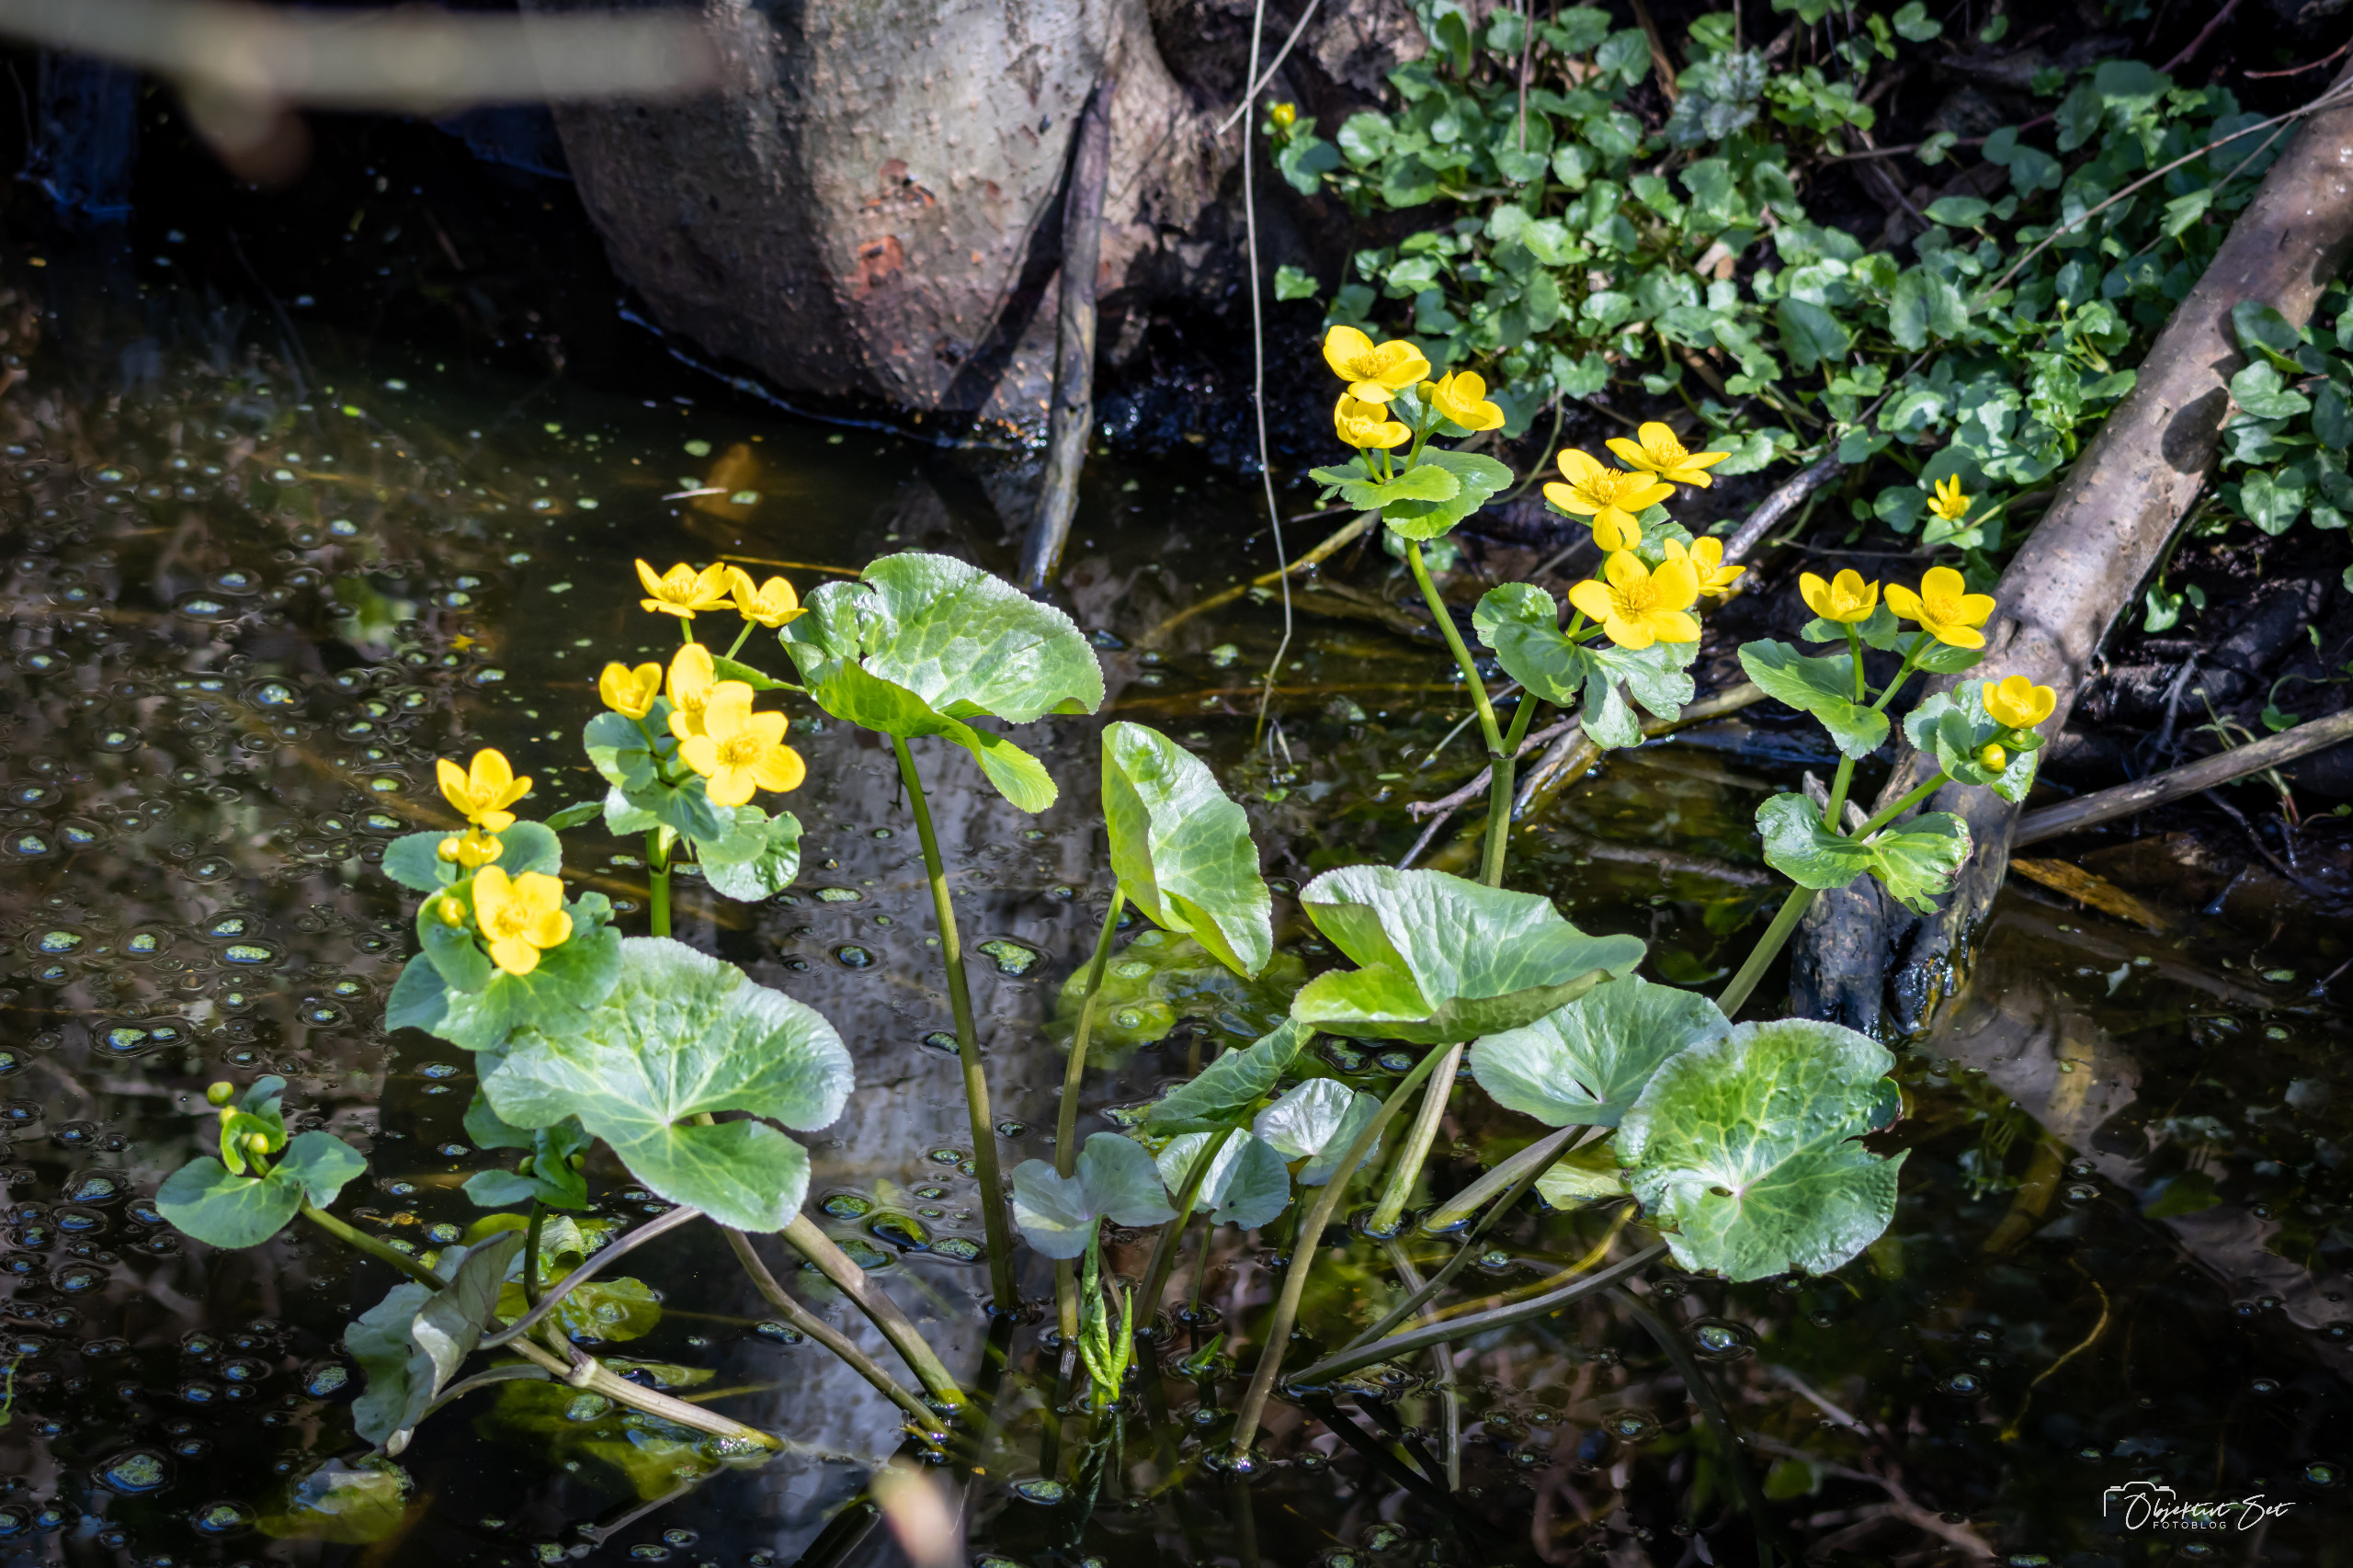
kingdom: Plantae
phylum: Tracheophyta
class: Magnoliopsida
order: Ranunculales
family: Ranunculaceae
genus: Caltha
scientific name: Caltha palustris
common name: Eng-kabbeleje
